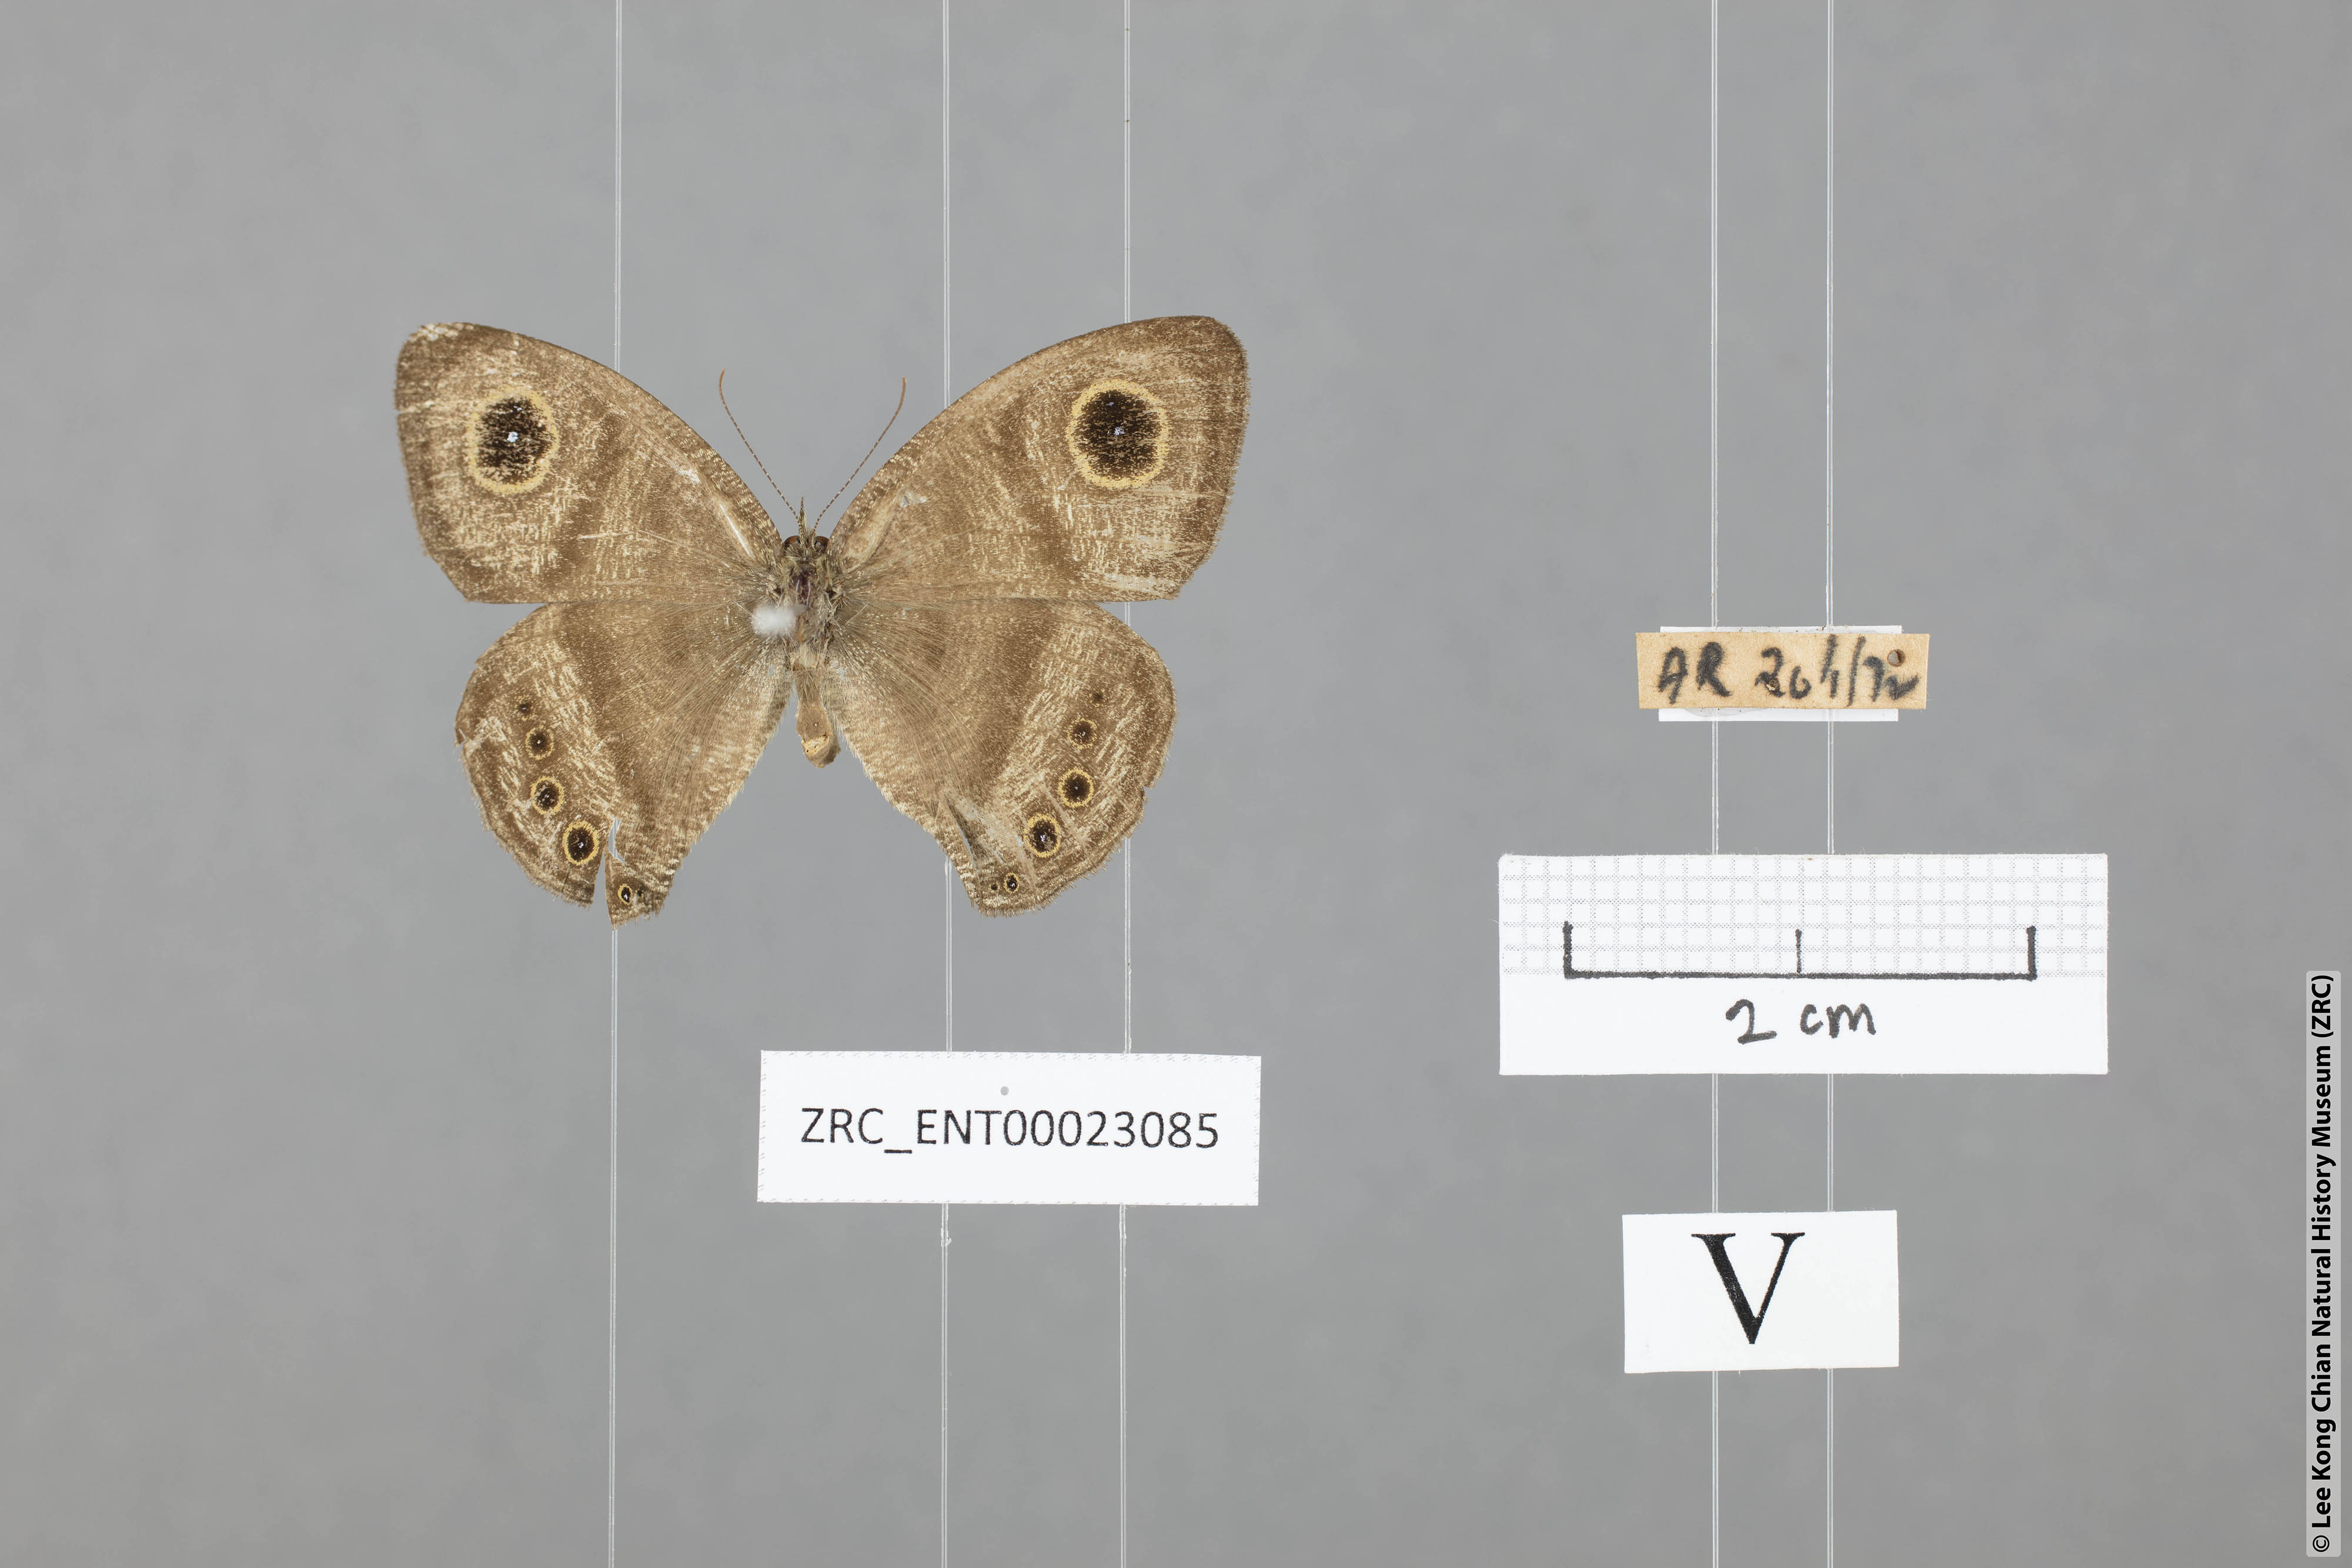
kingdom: Animalia
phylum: Arthropoda
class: Insecta
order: Lepidoptera
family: Nymphalidae
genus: Ypthima
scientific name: Ypthima fasciata
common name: Malayan six-ring
